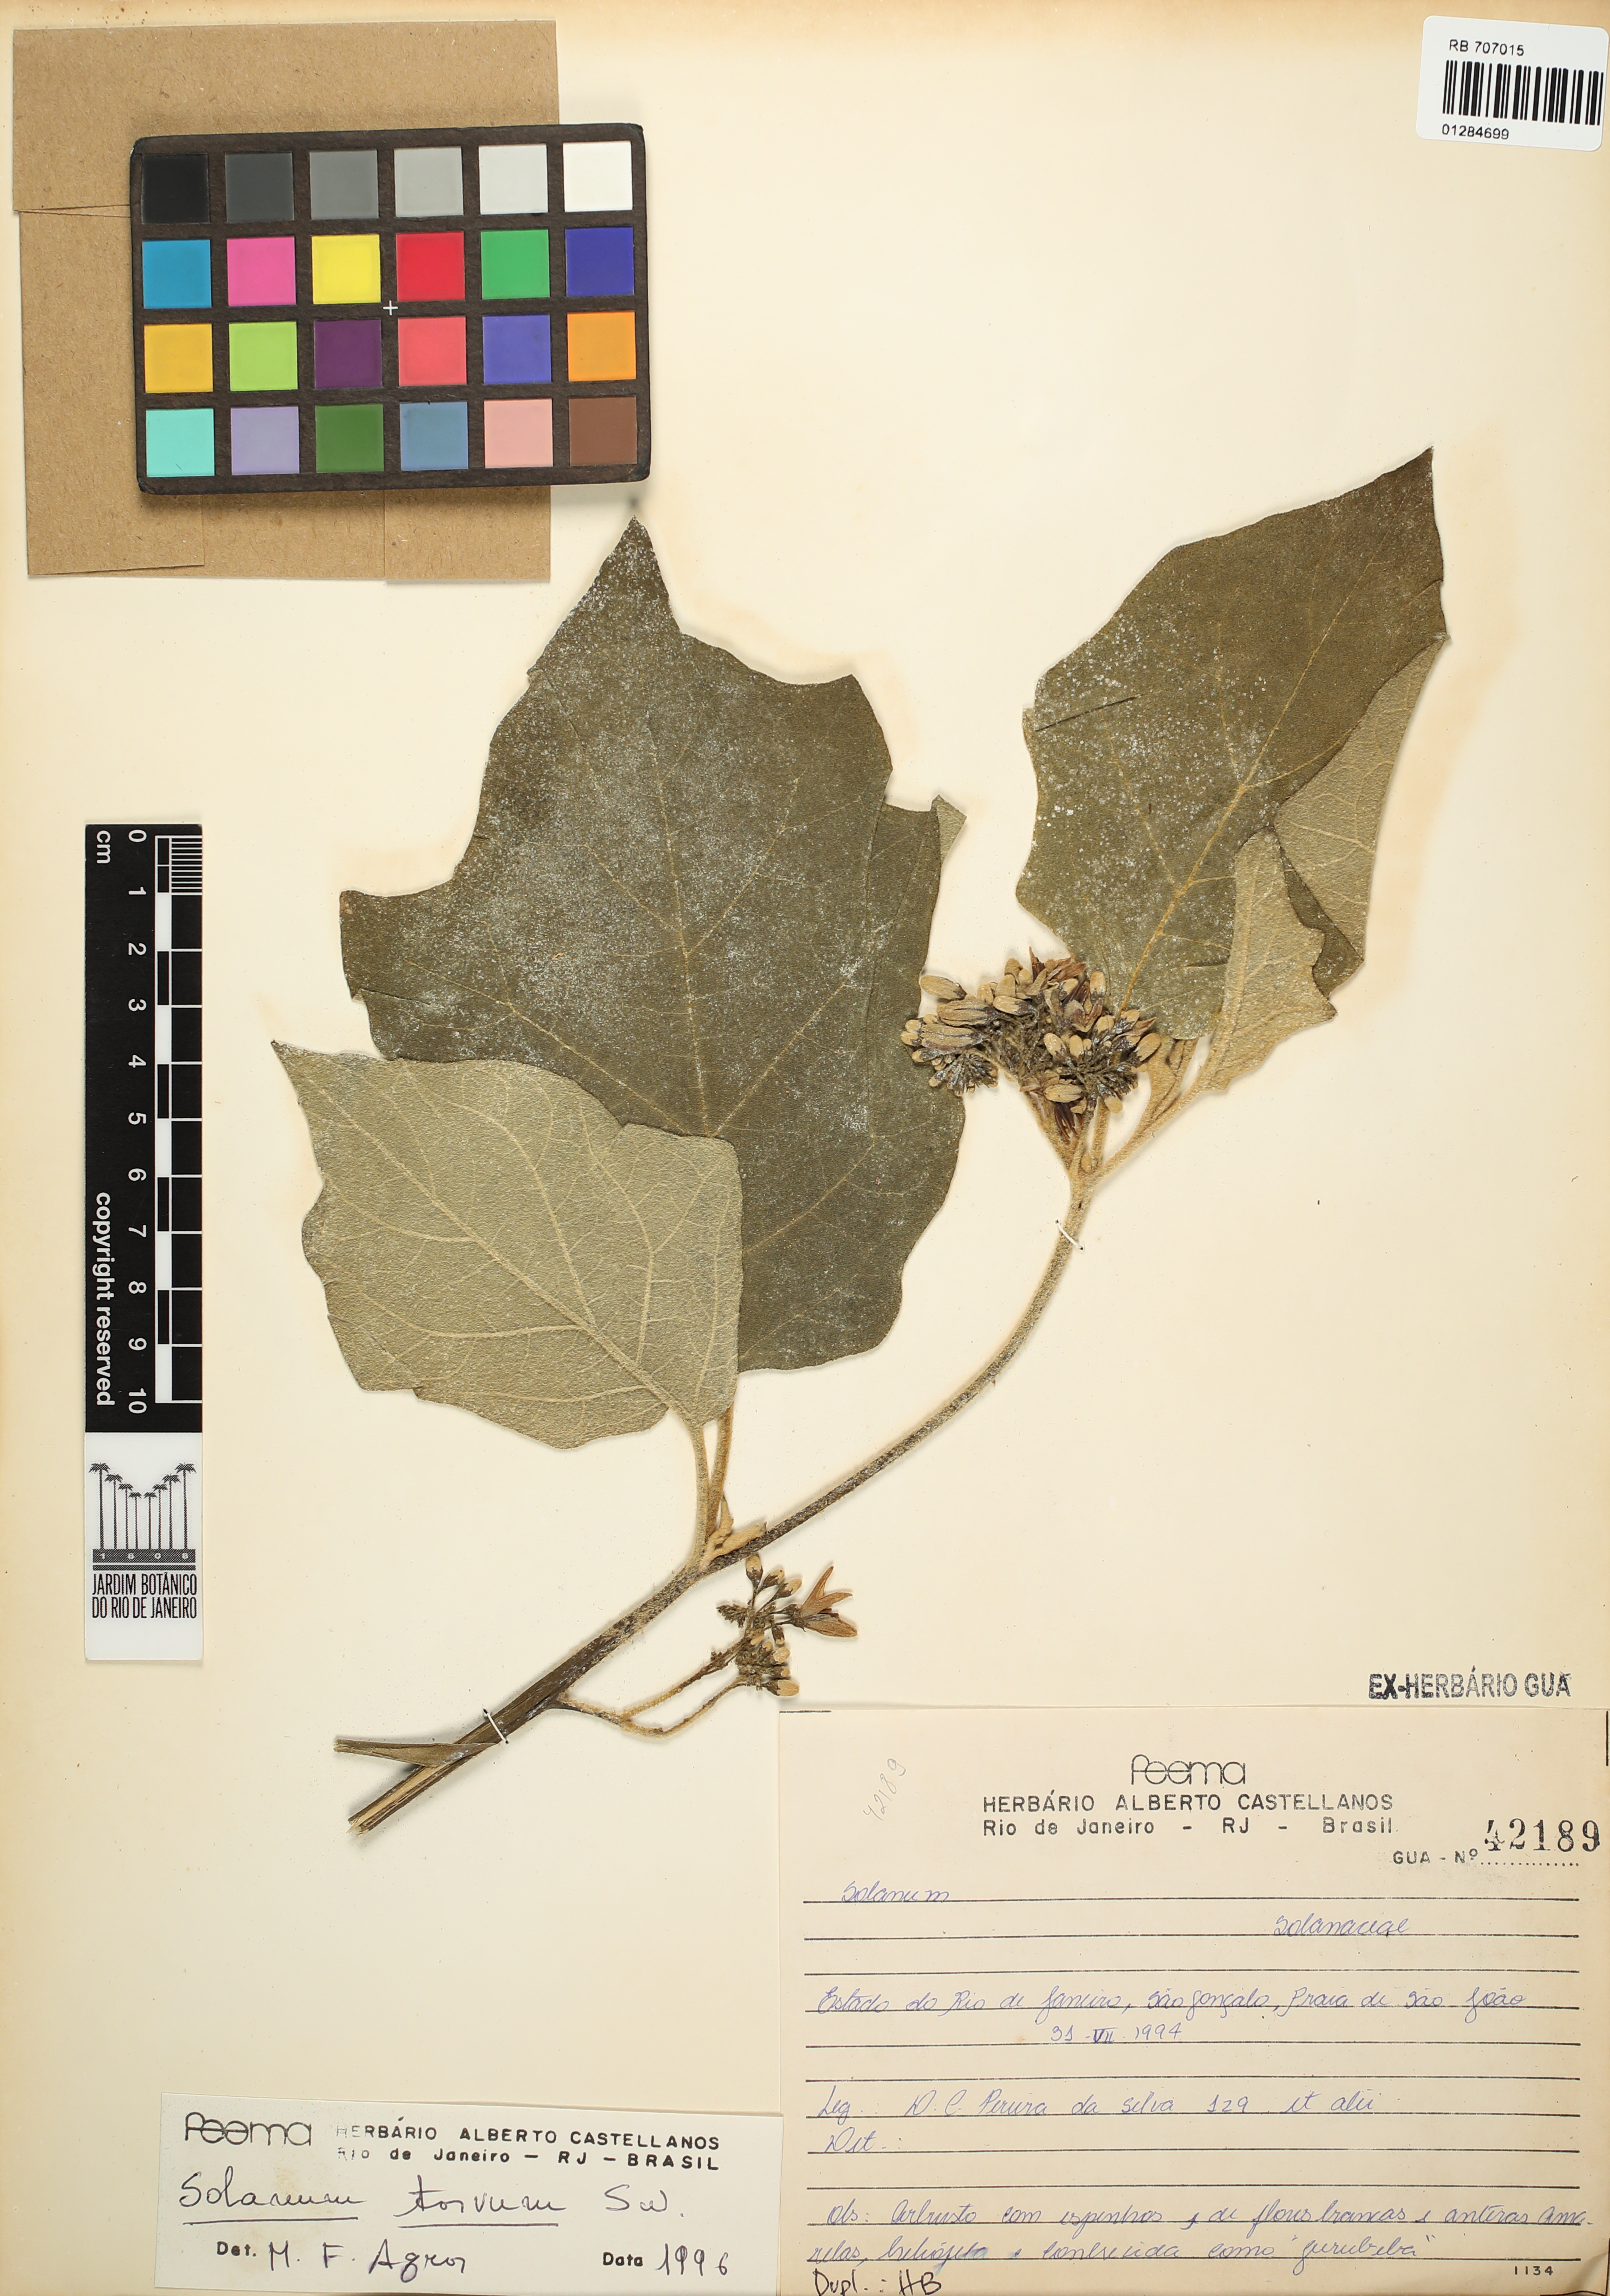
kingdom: Plantae
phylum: Tracheophyta
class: Magnoliopsida
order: Solanales
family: Solanaceae
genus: Solanum
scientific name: Solanum torvum
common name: Turkey berry
